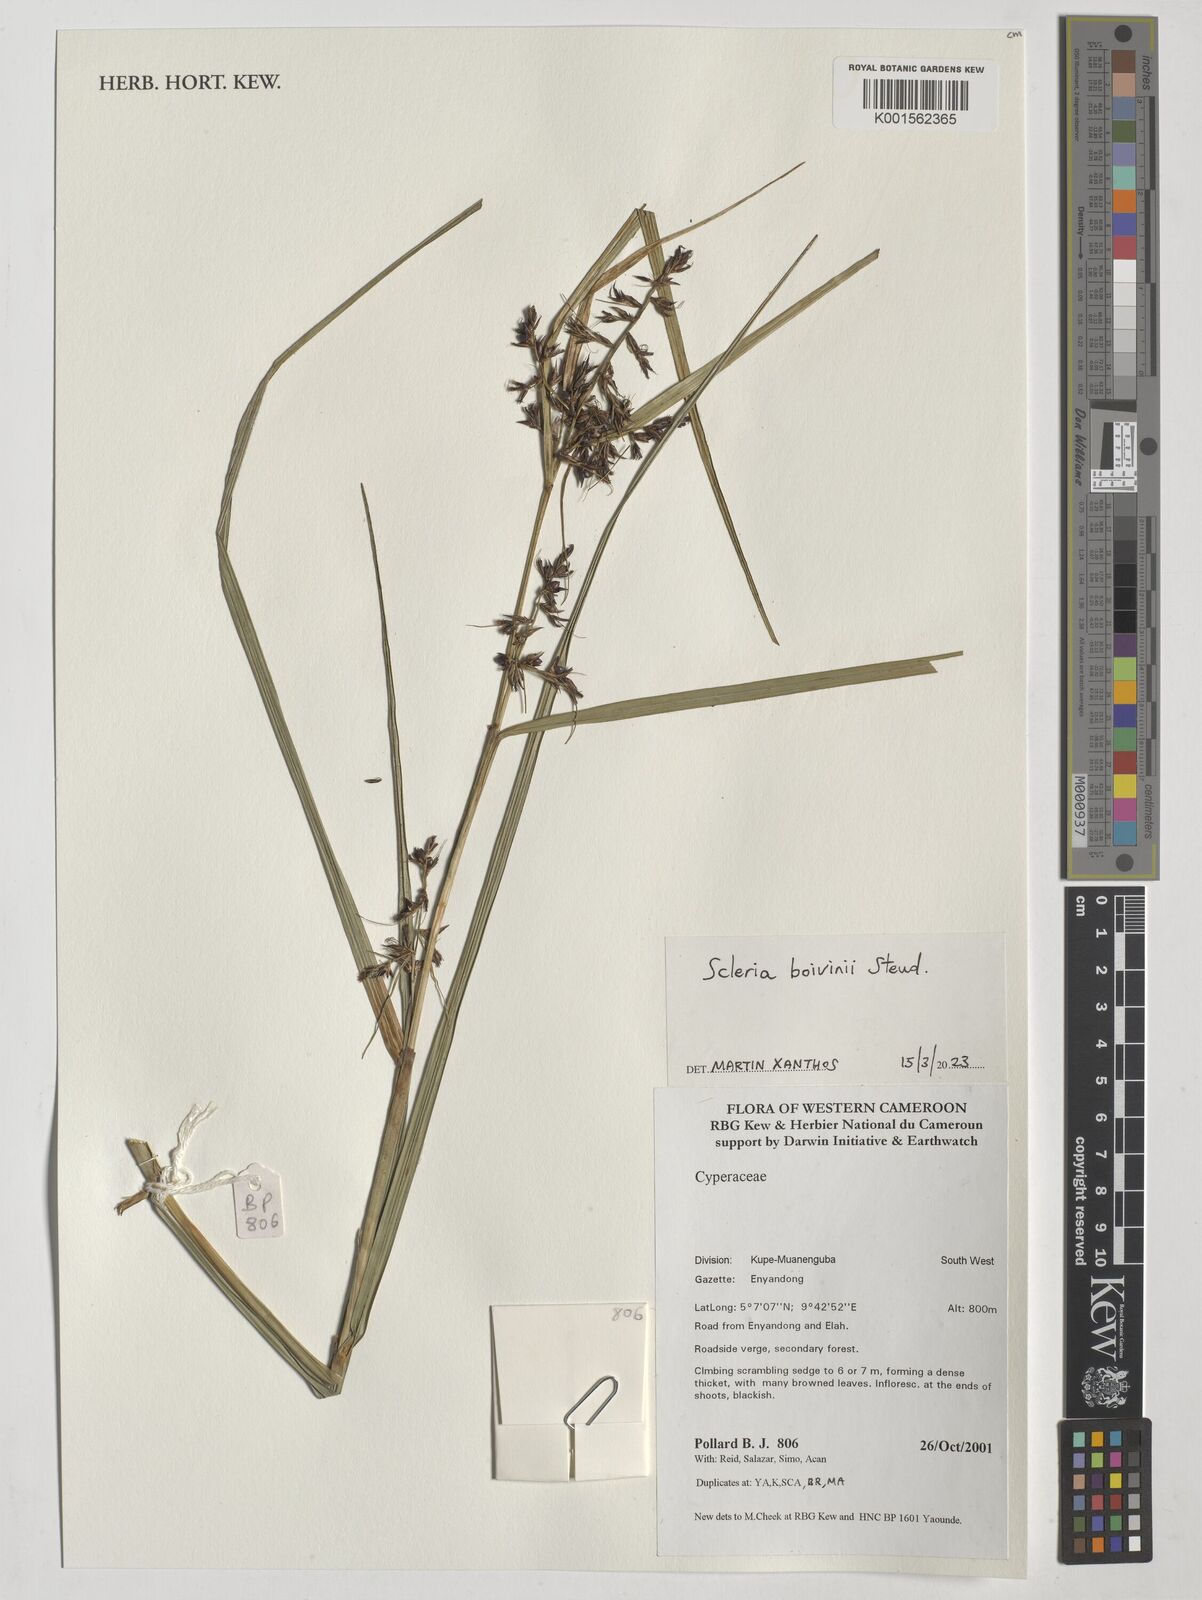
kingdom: Plantae
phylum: Tracheophyta
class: Liliopsida
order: Poales
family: Cyperaceae
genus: Scleria
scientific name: Scleria boivinii
